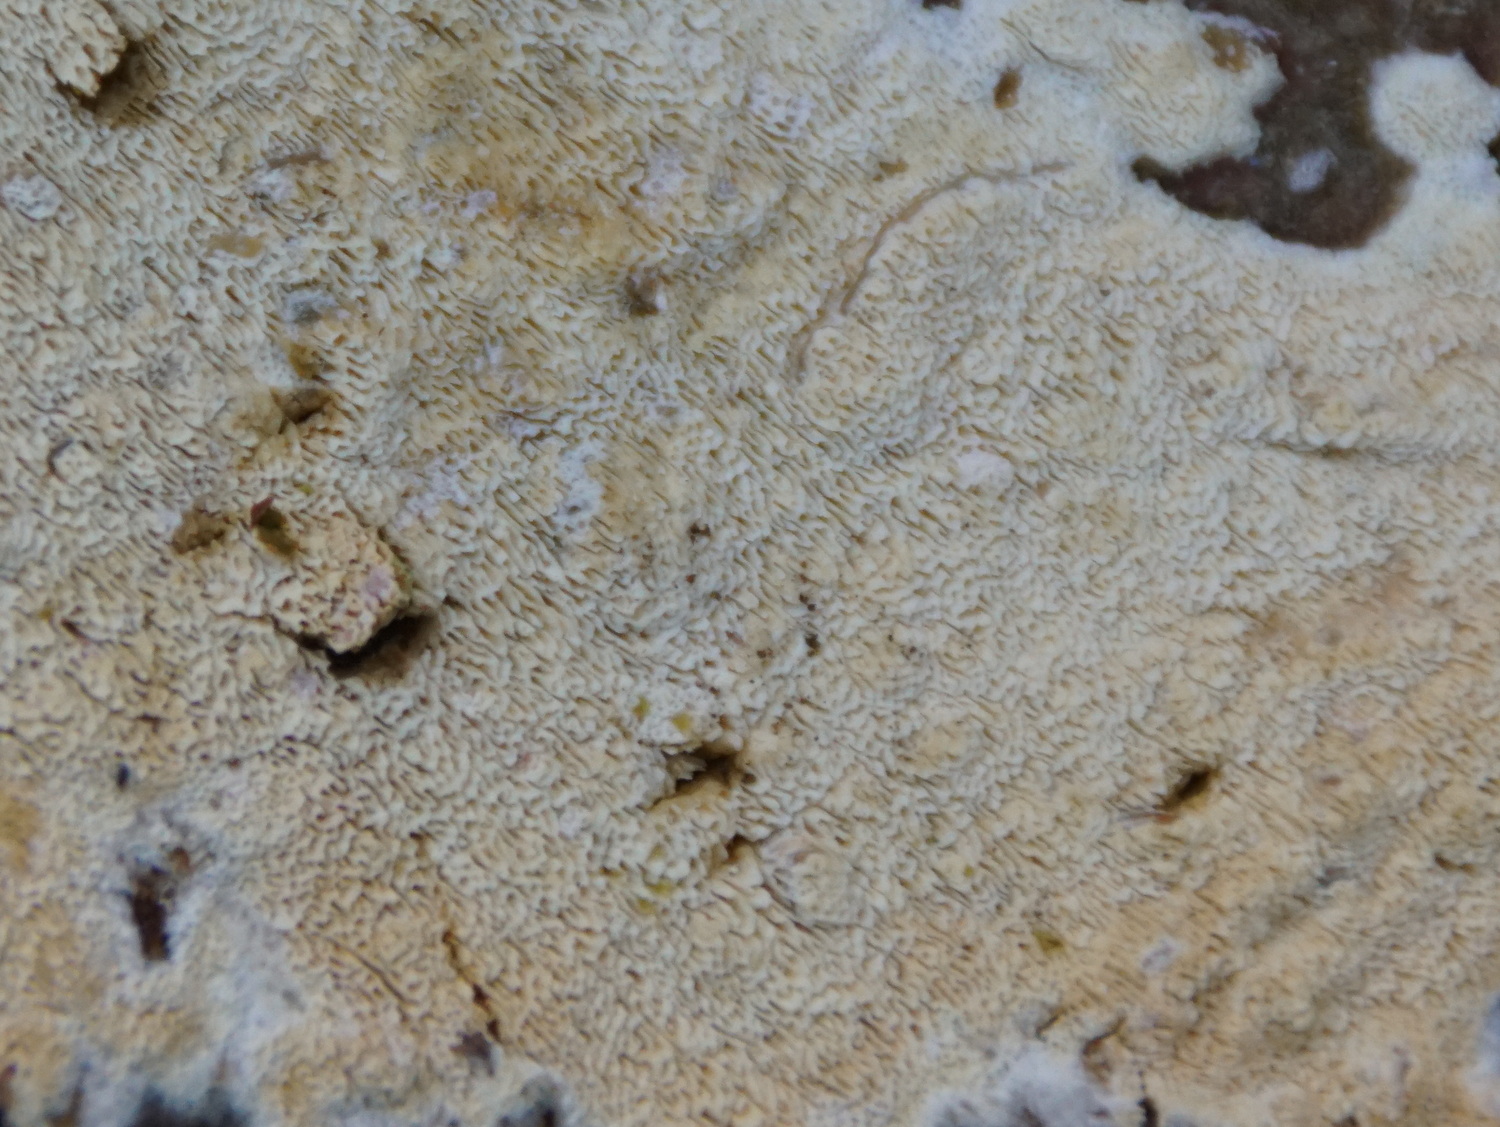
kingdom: Fungi
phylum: Basidiomycota
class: Agaricomycetes
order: Hymenochaetales
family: Schizoporaceae
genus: Xylodon
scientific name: Xylodon subtropicus
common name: labyrint-tandsvamp
